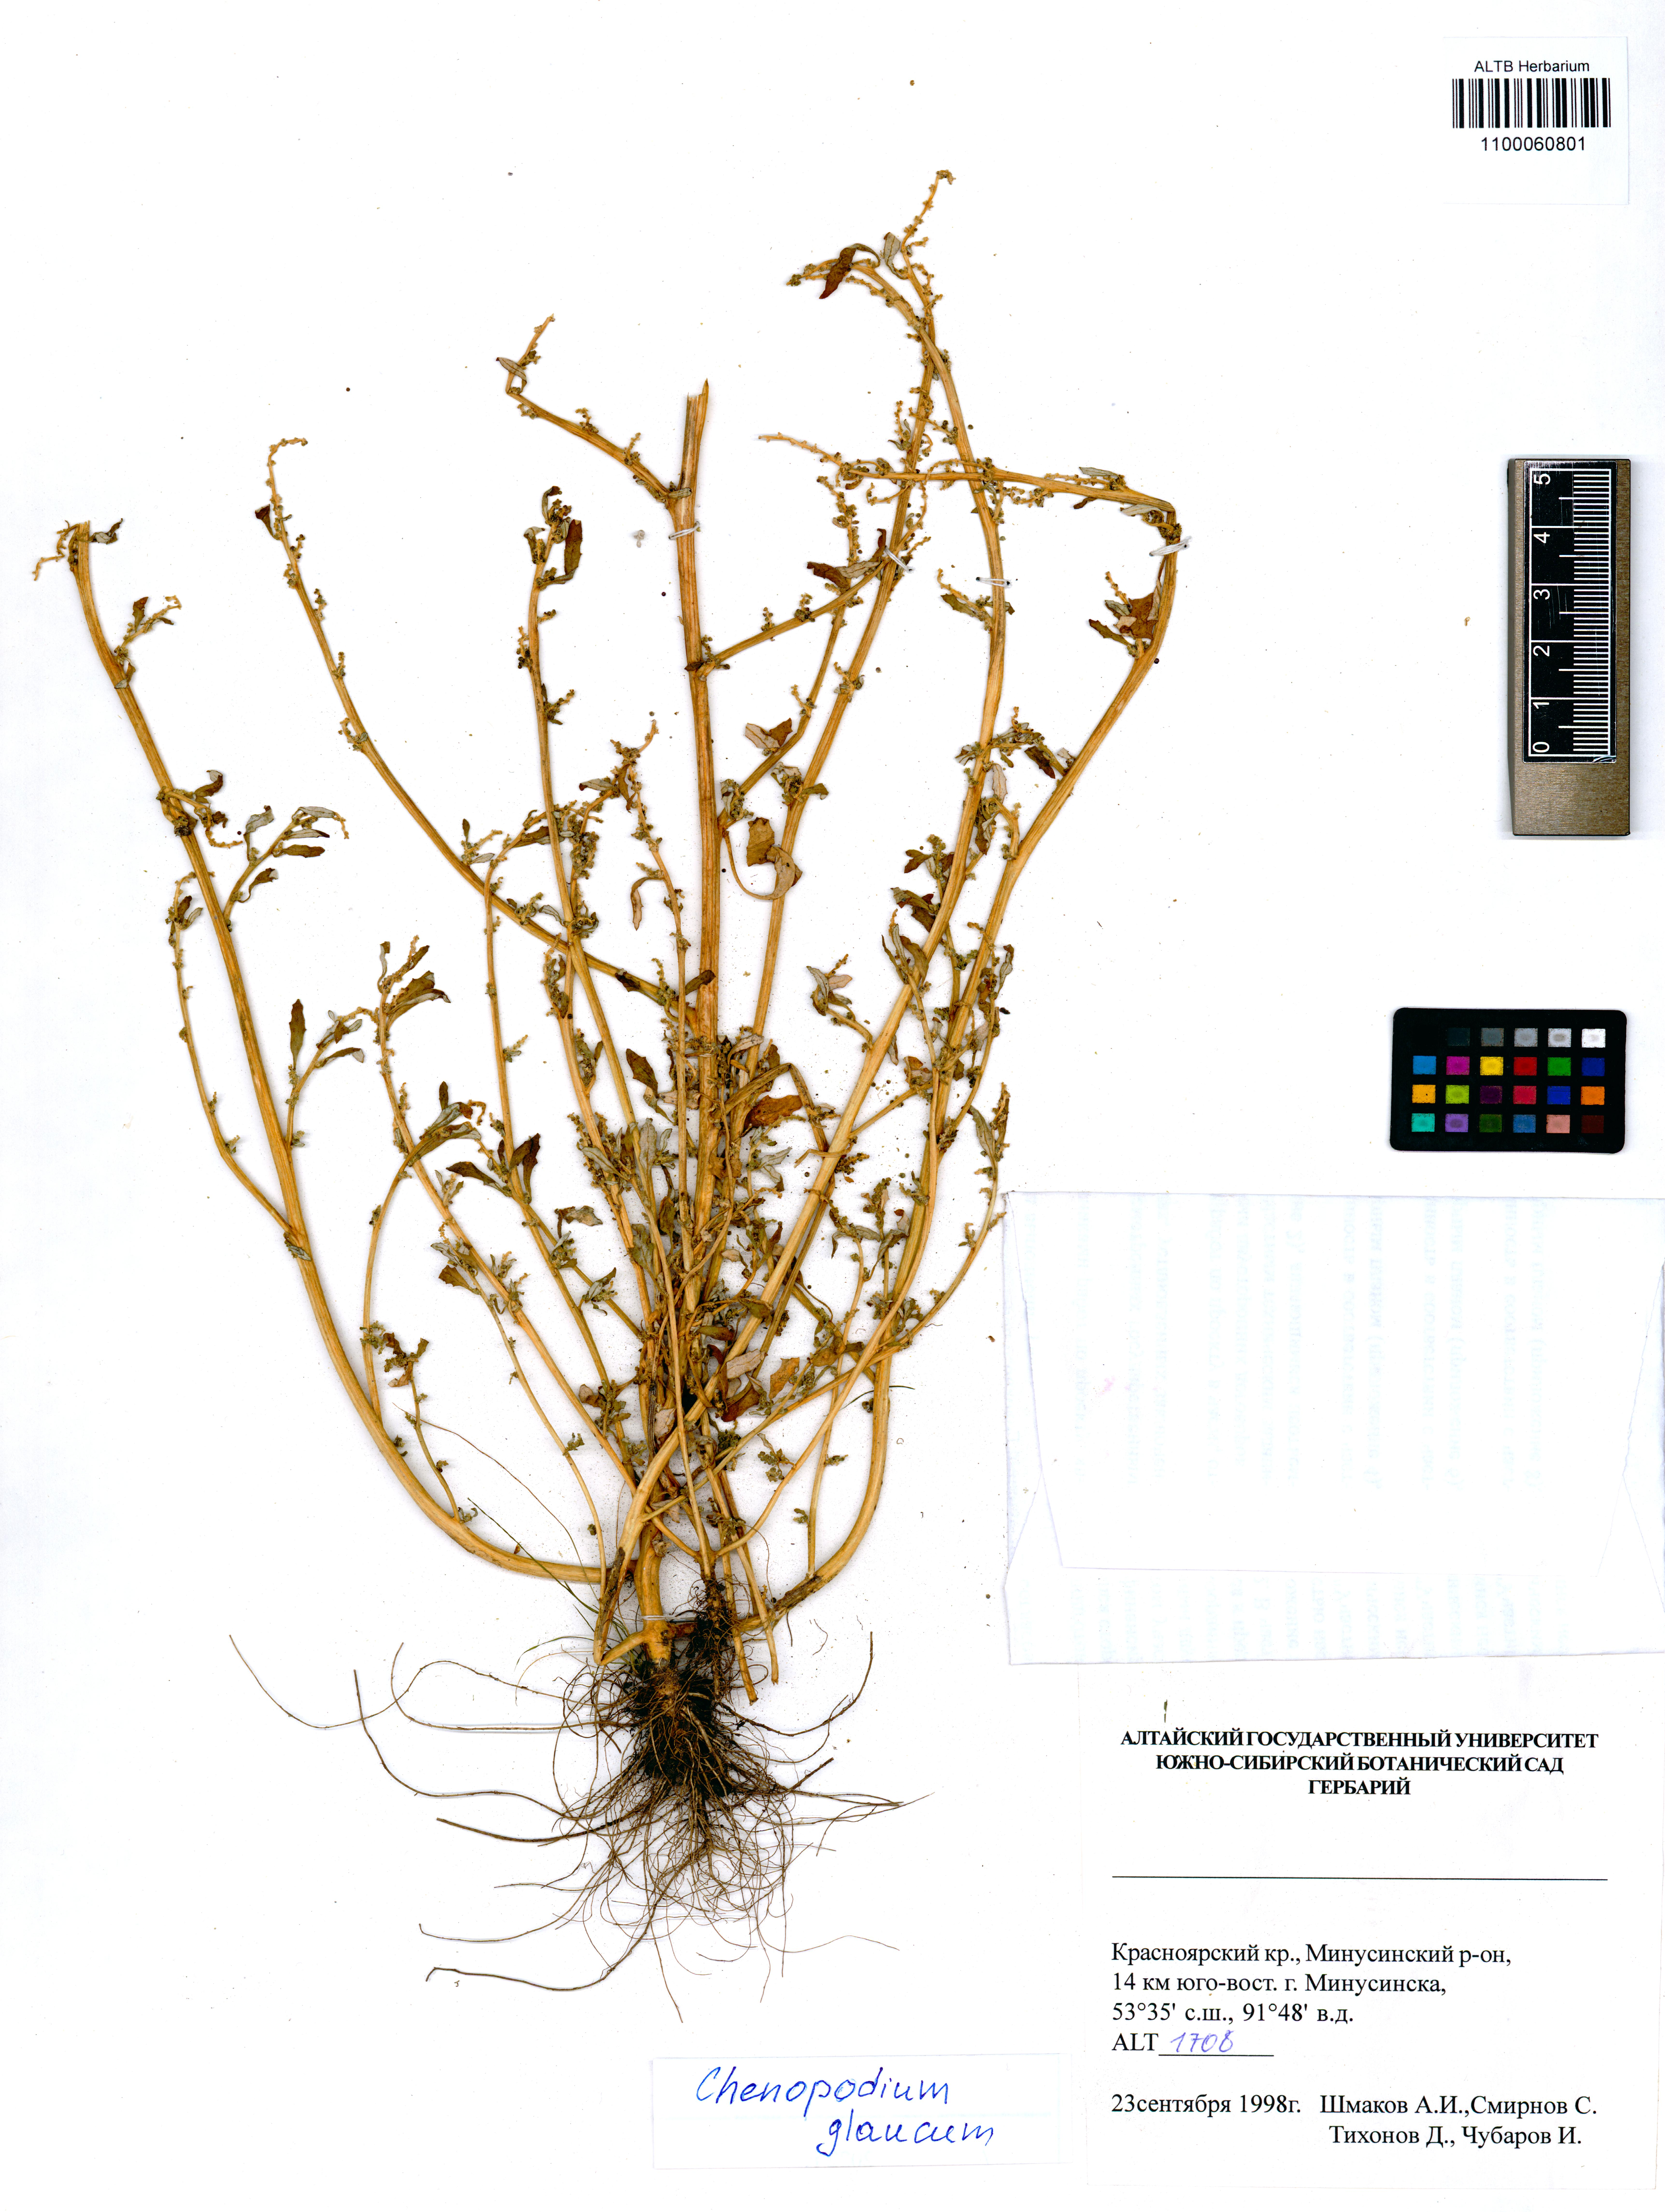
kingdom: Plantae
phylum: Tracheophyta
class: Magnoliopsida
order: Caryophyllales
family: Amaranthaceae
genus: Oxybasis
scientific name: Oxybasis glauca
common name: Glaucous goosefoot
